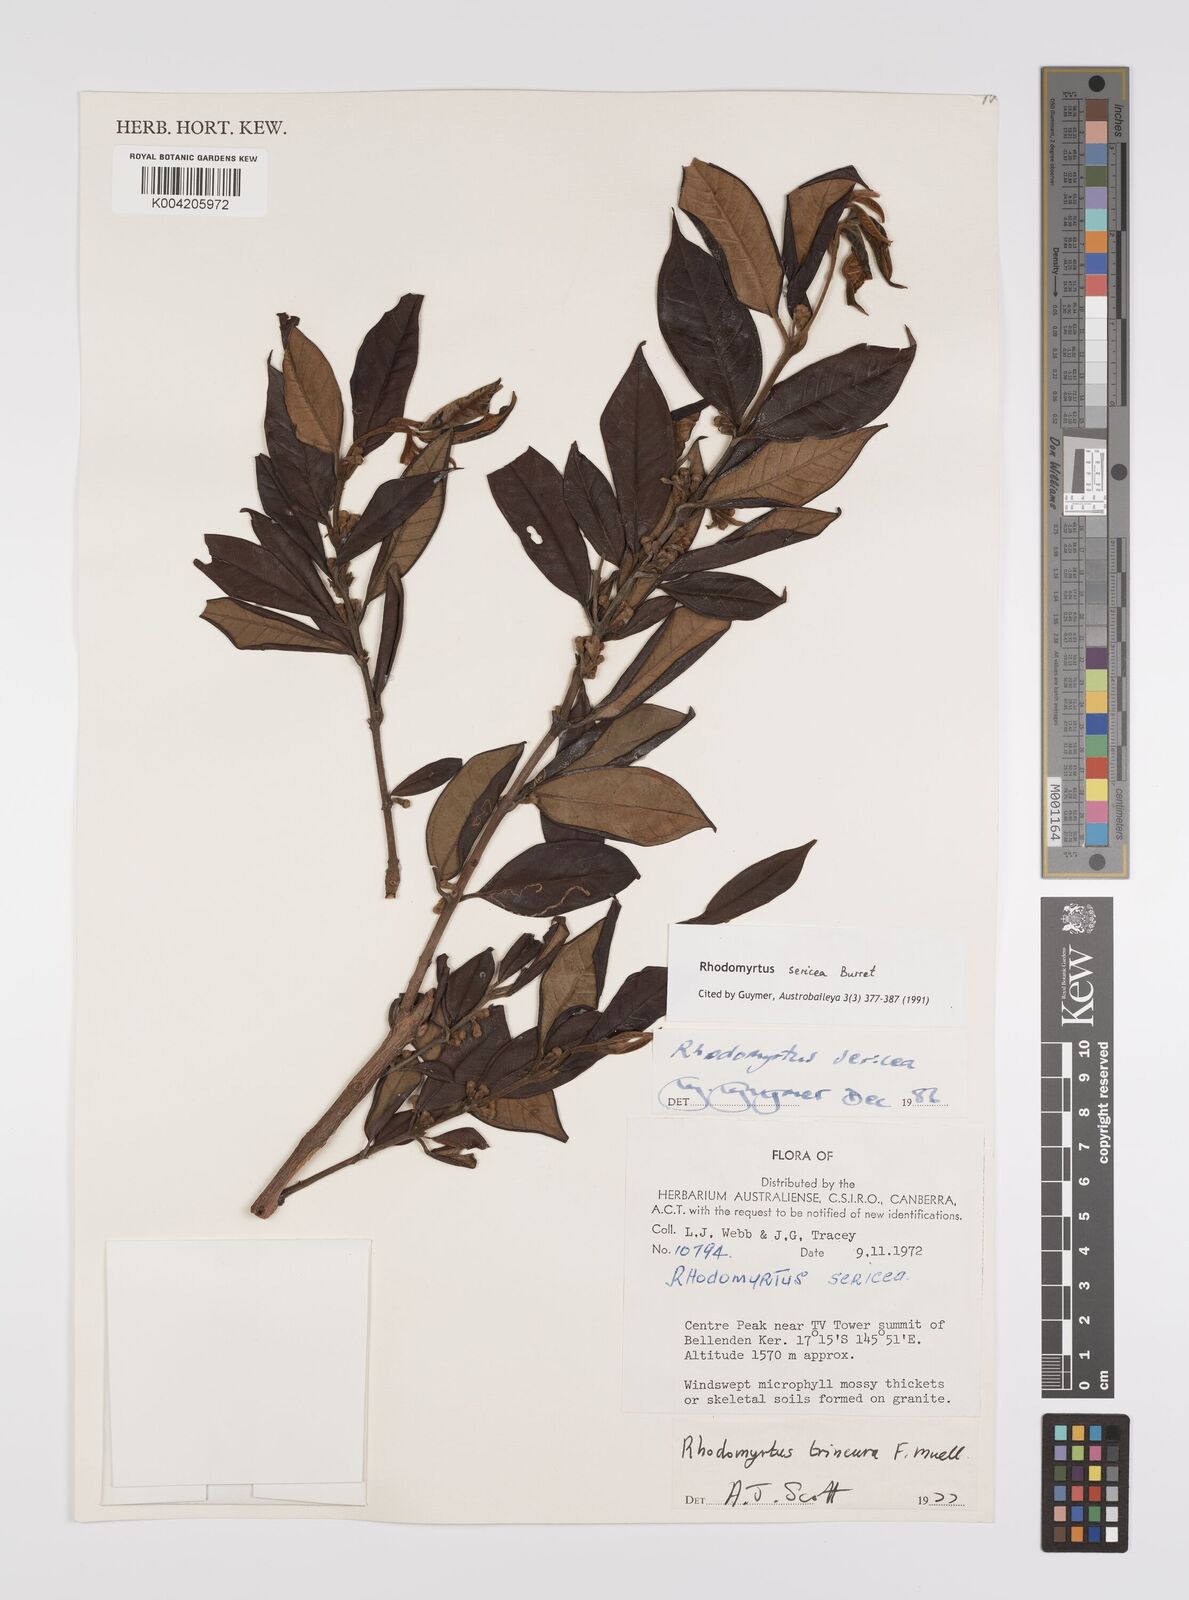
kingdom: Plantae
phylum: Tracheophyta
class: Magnoliopsida
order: Myrtales
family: Myrtaceae
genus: Rhodomyrtus
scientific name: Rhodomyrtus sericea
